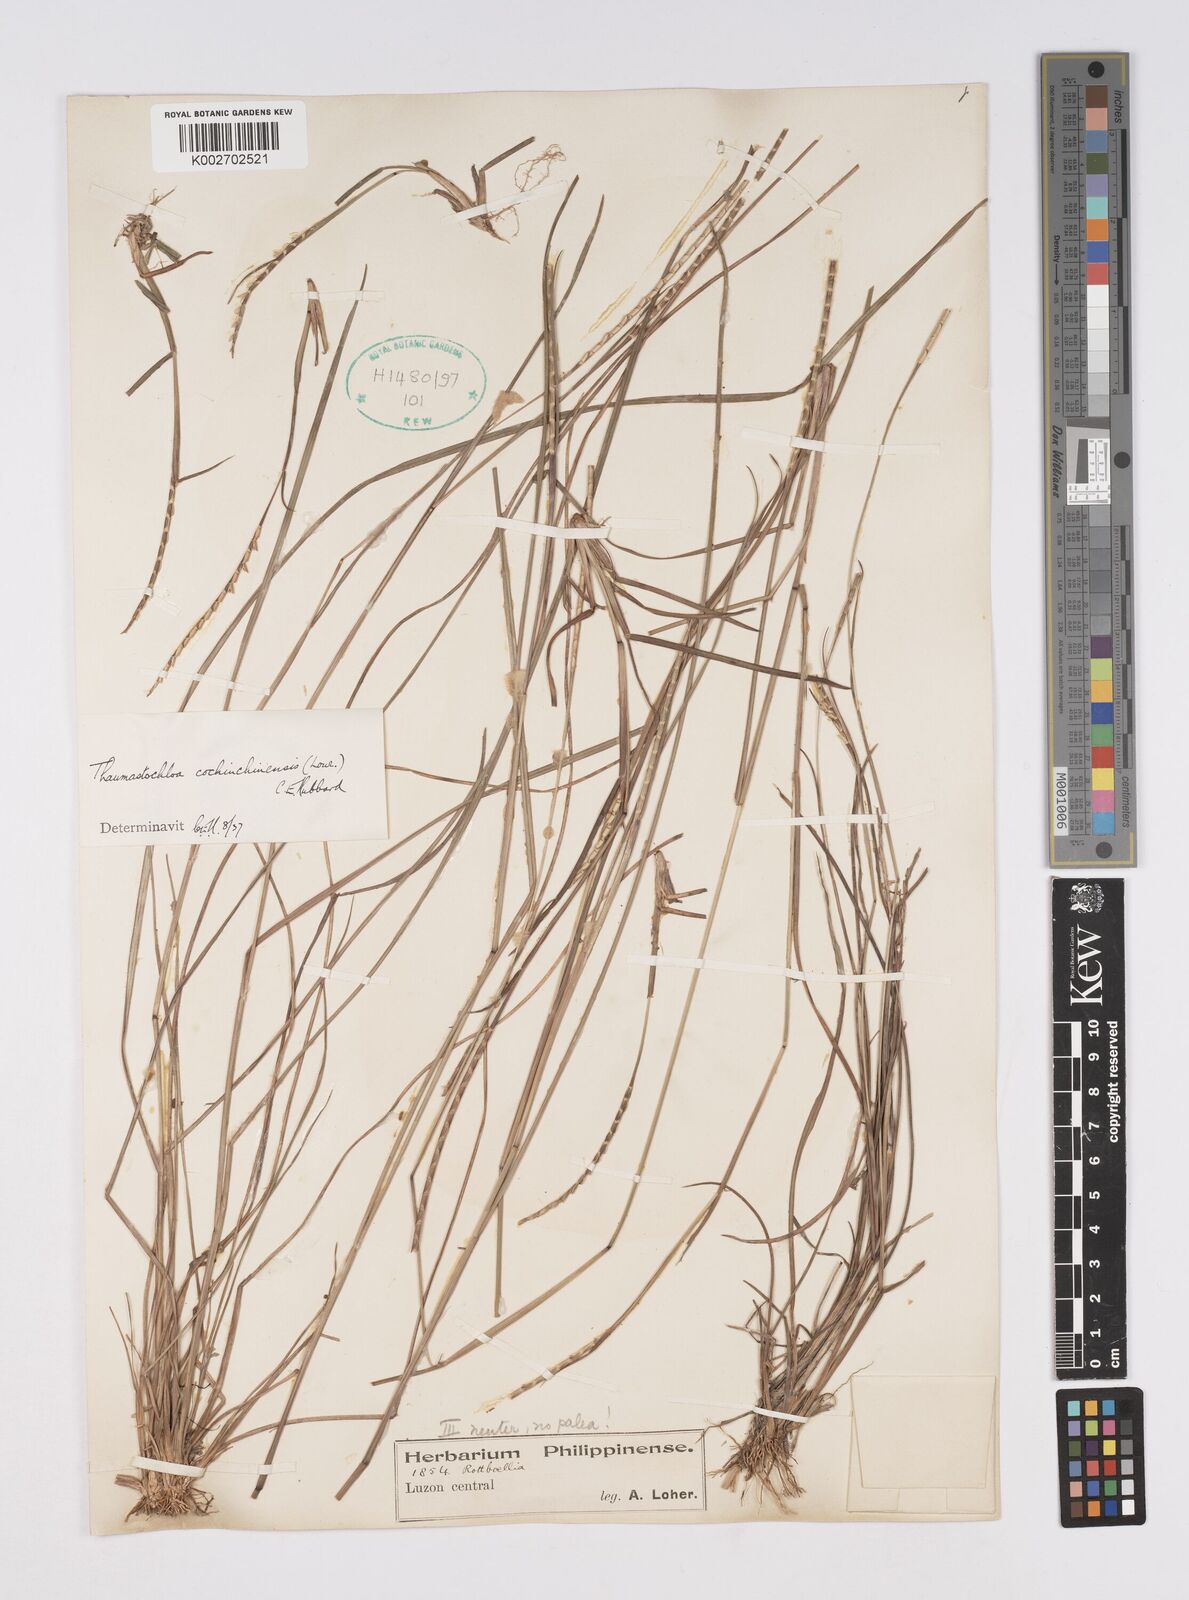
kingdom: Plantae
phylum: Tracheophyta
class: Liliopsida
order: Poales
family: Poaceae
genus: Mnesithea
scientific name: Mnesithea
